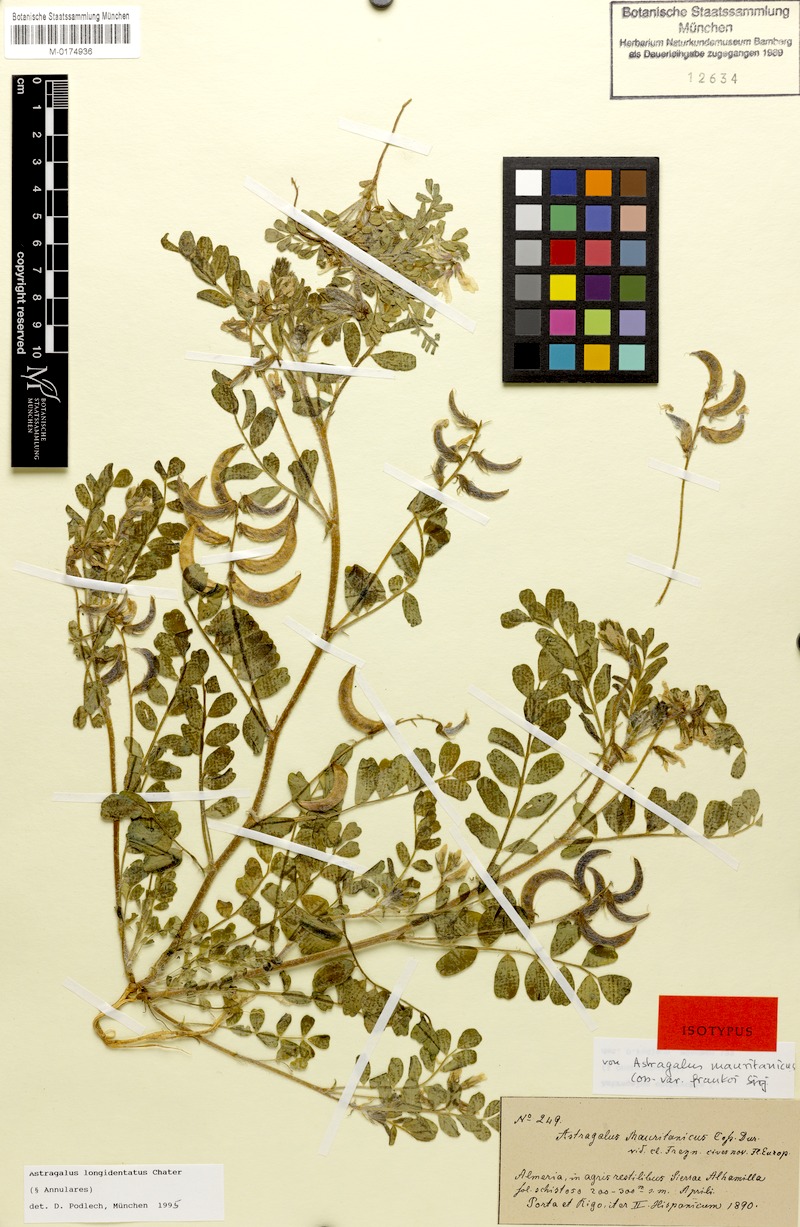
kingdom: Plantae
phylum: Tracheophyta
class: Magnoliopsida
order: Fabales
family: Fabaceae
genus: Astragalus
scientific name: Astragalus longidentatus
